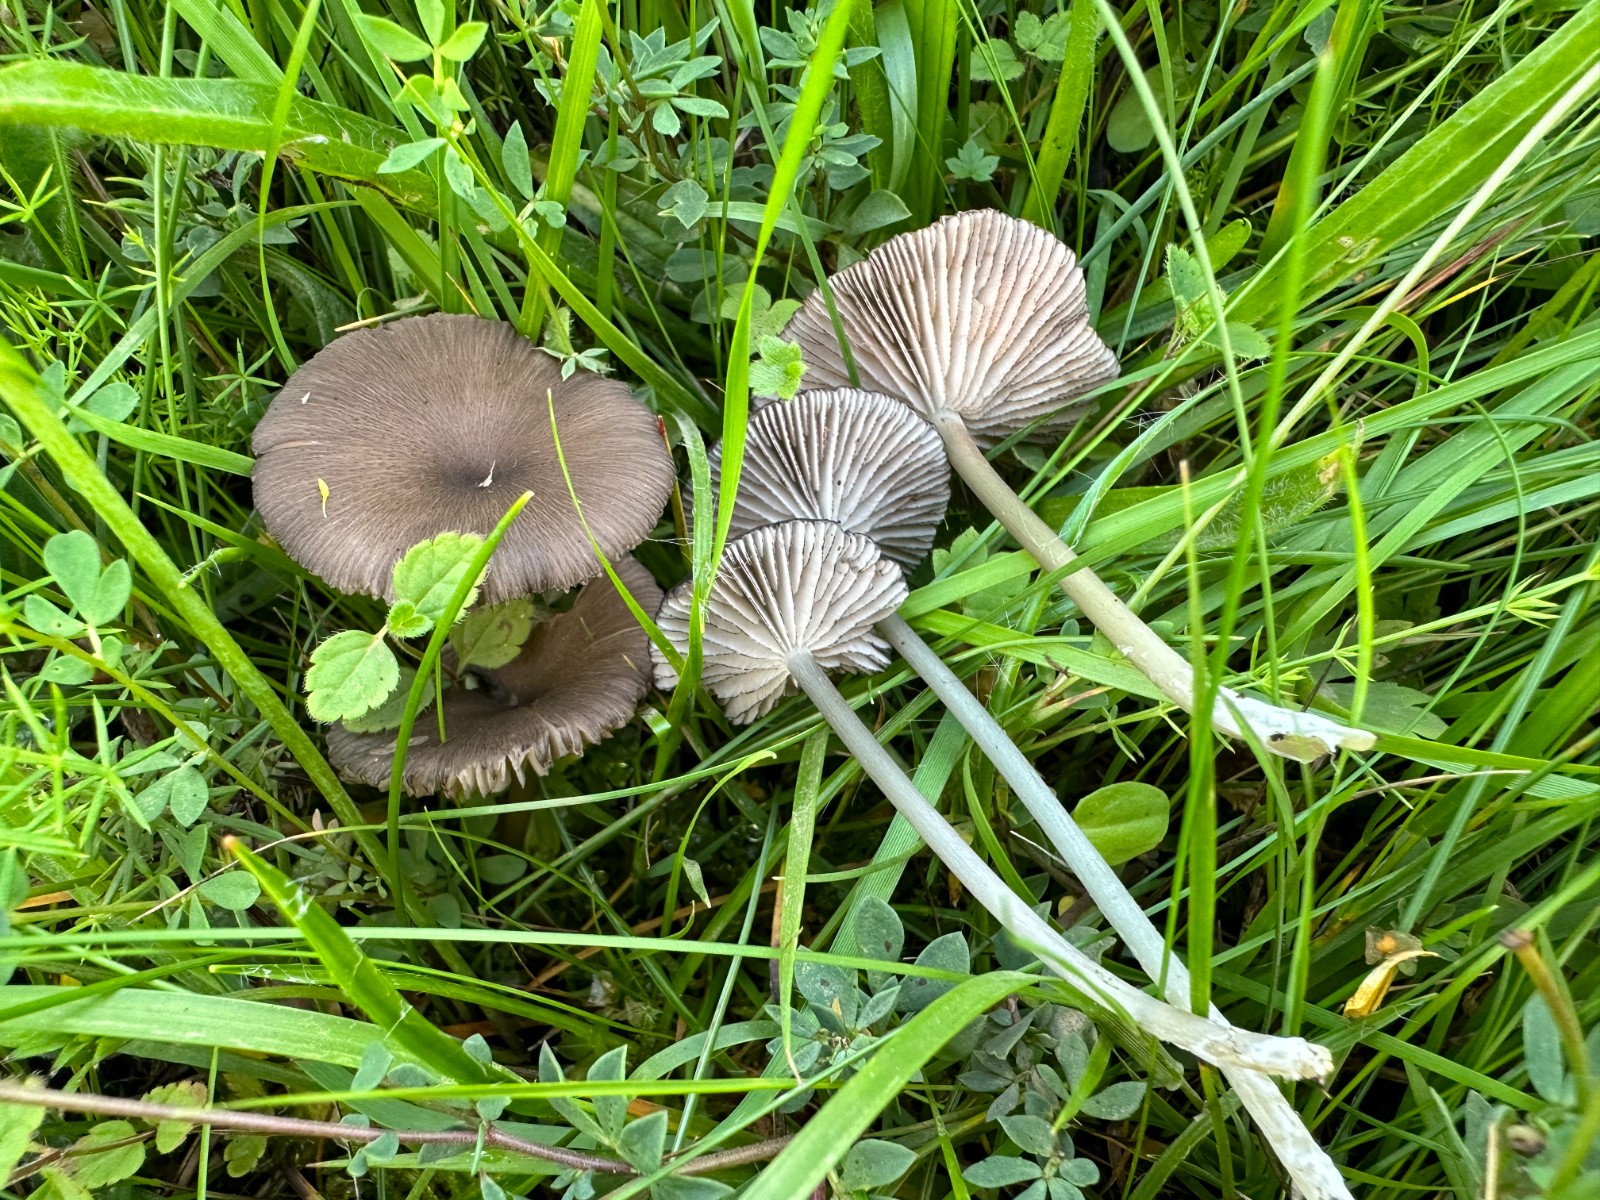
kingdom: Fungi
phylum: Basidiomycota
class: Agaricomycetes
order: Agaricales
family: Entolomataceae
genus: Entoloma
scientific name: Entoloma
